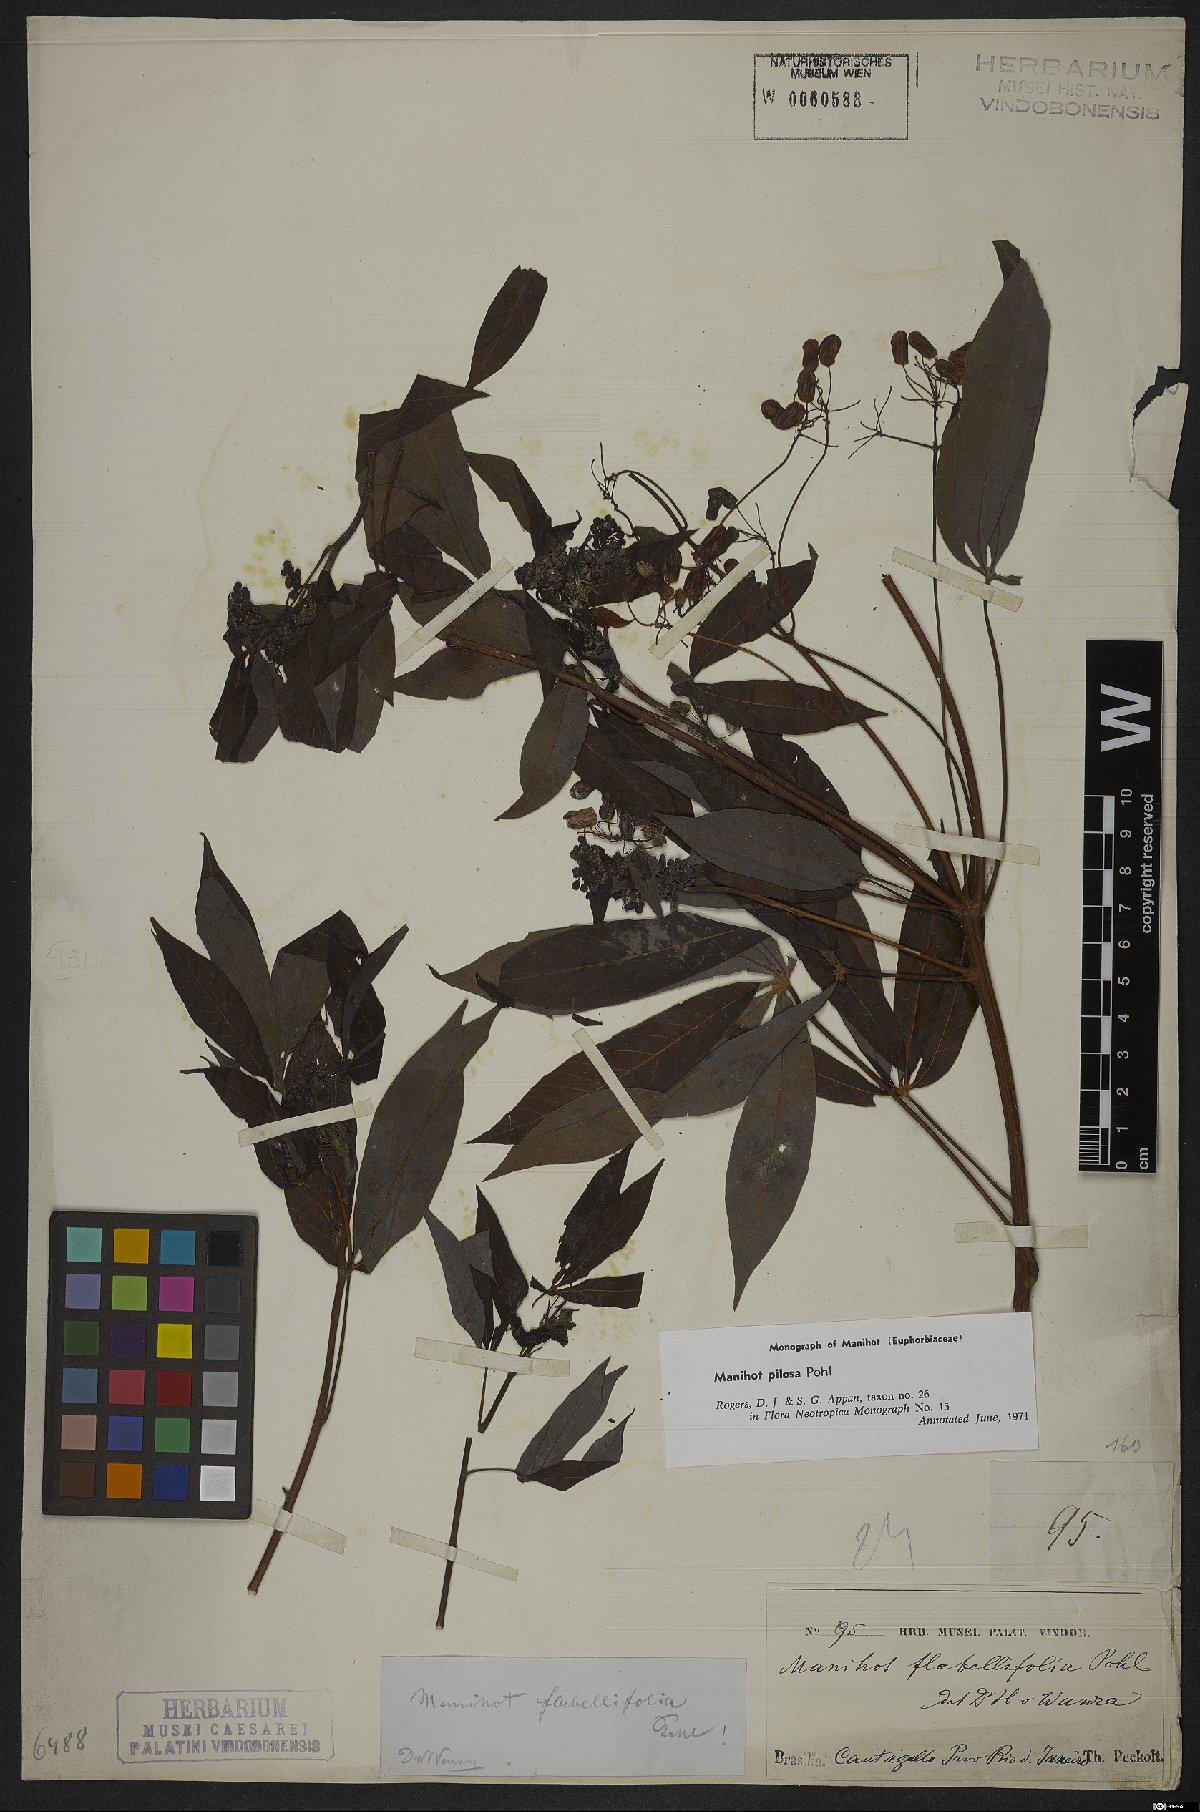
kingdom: Plantae
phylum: Tracheophyta
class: Magnoliopsida
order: Malpighiales
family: Euphorbiaceae
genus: Manihot
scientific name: Manihot pilosa
